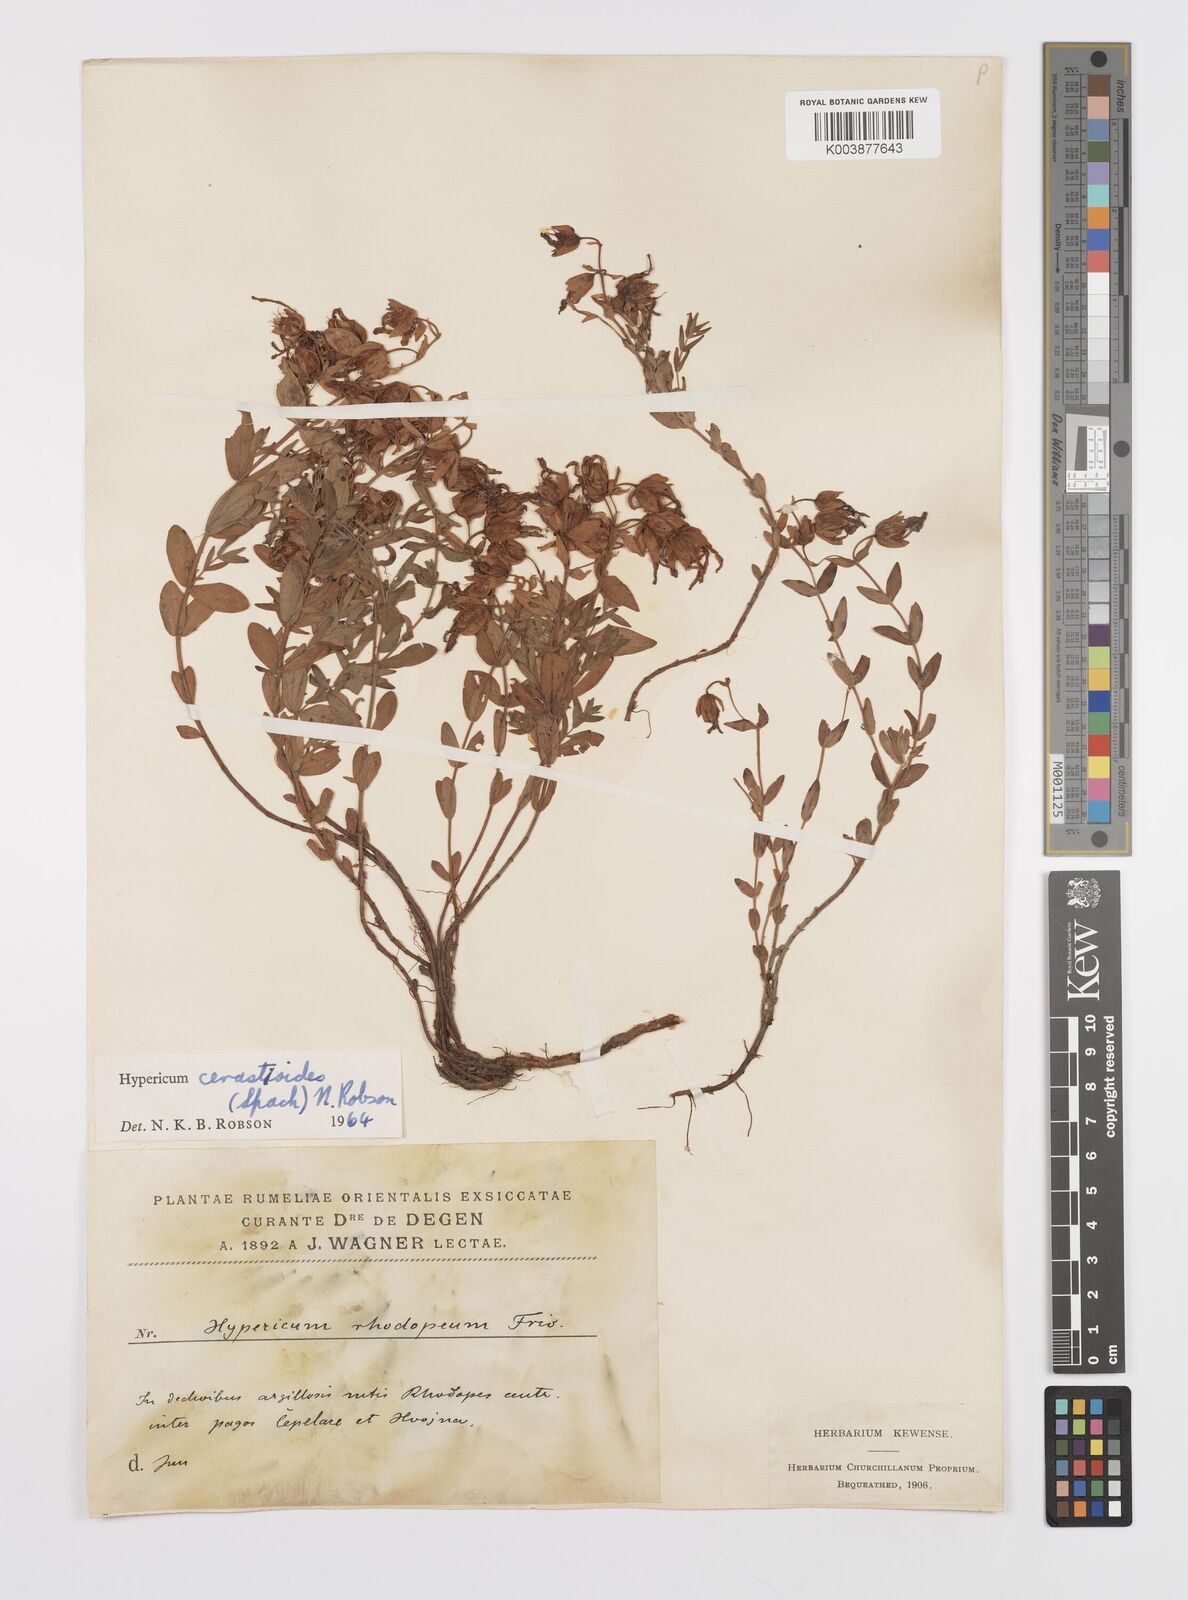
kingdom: Plantae
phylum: Tracheophyta
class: Magnoliopsida
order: Malpighiales
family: Hypericaceae
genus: Hypericum
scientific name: Hypericum cerastoides
